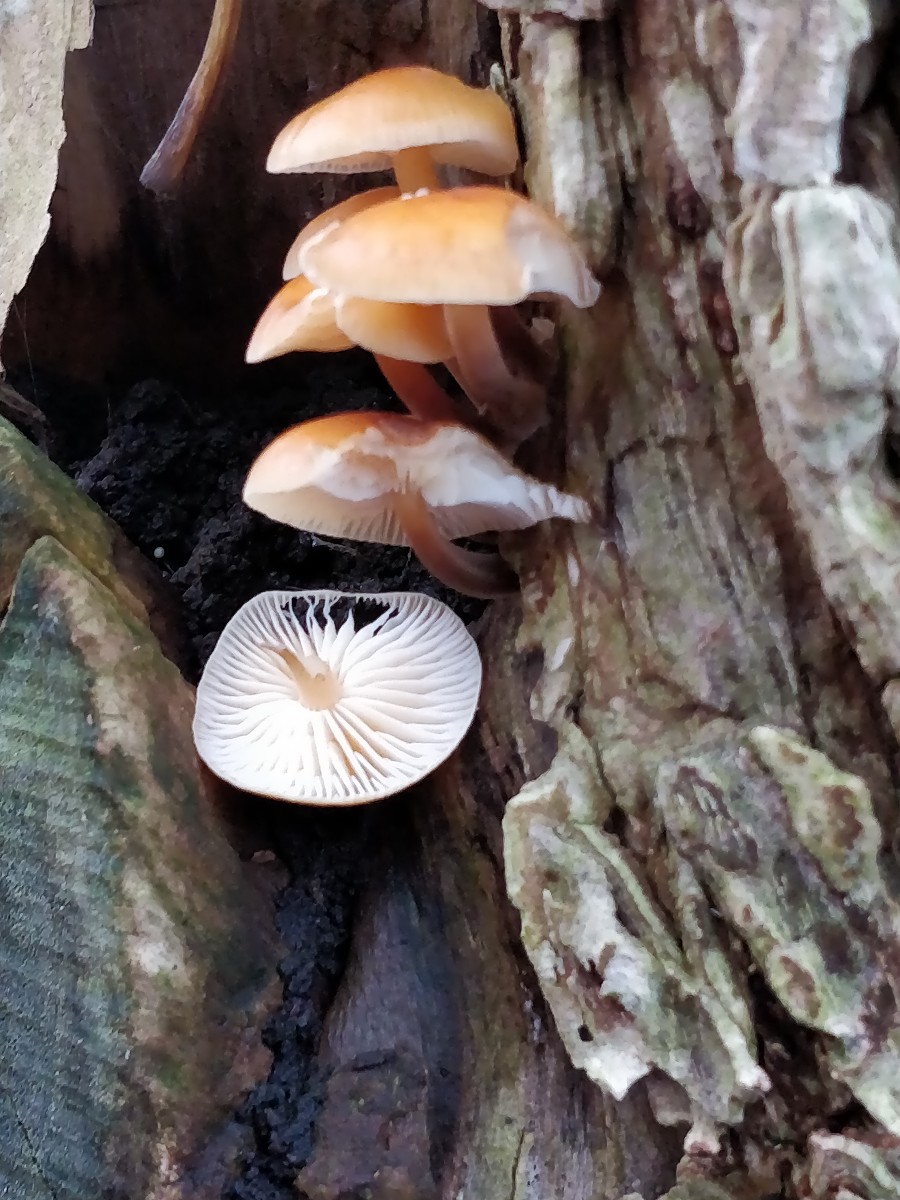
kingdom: Fungi
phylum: Basidiomycota
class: Agaricomycetes
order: Agaricales
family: Physalacriaceae
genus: Flammulina
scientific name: Flammulina velutipes
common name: gul fløjlsfod
